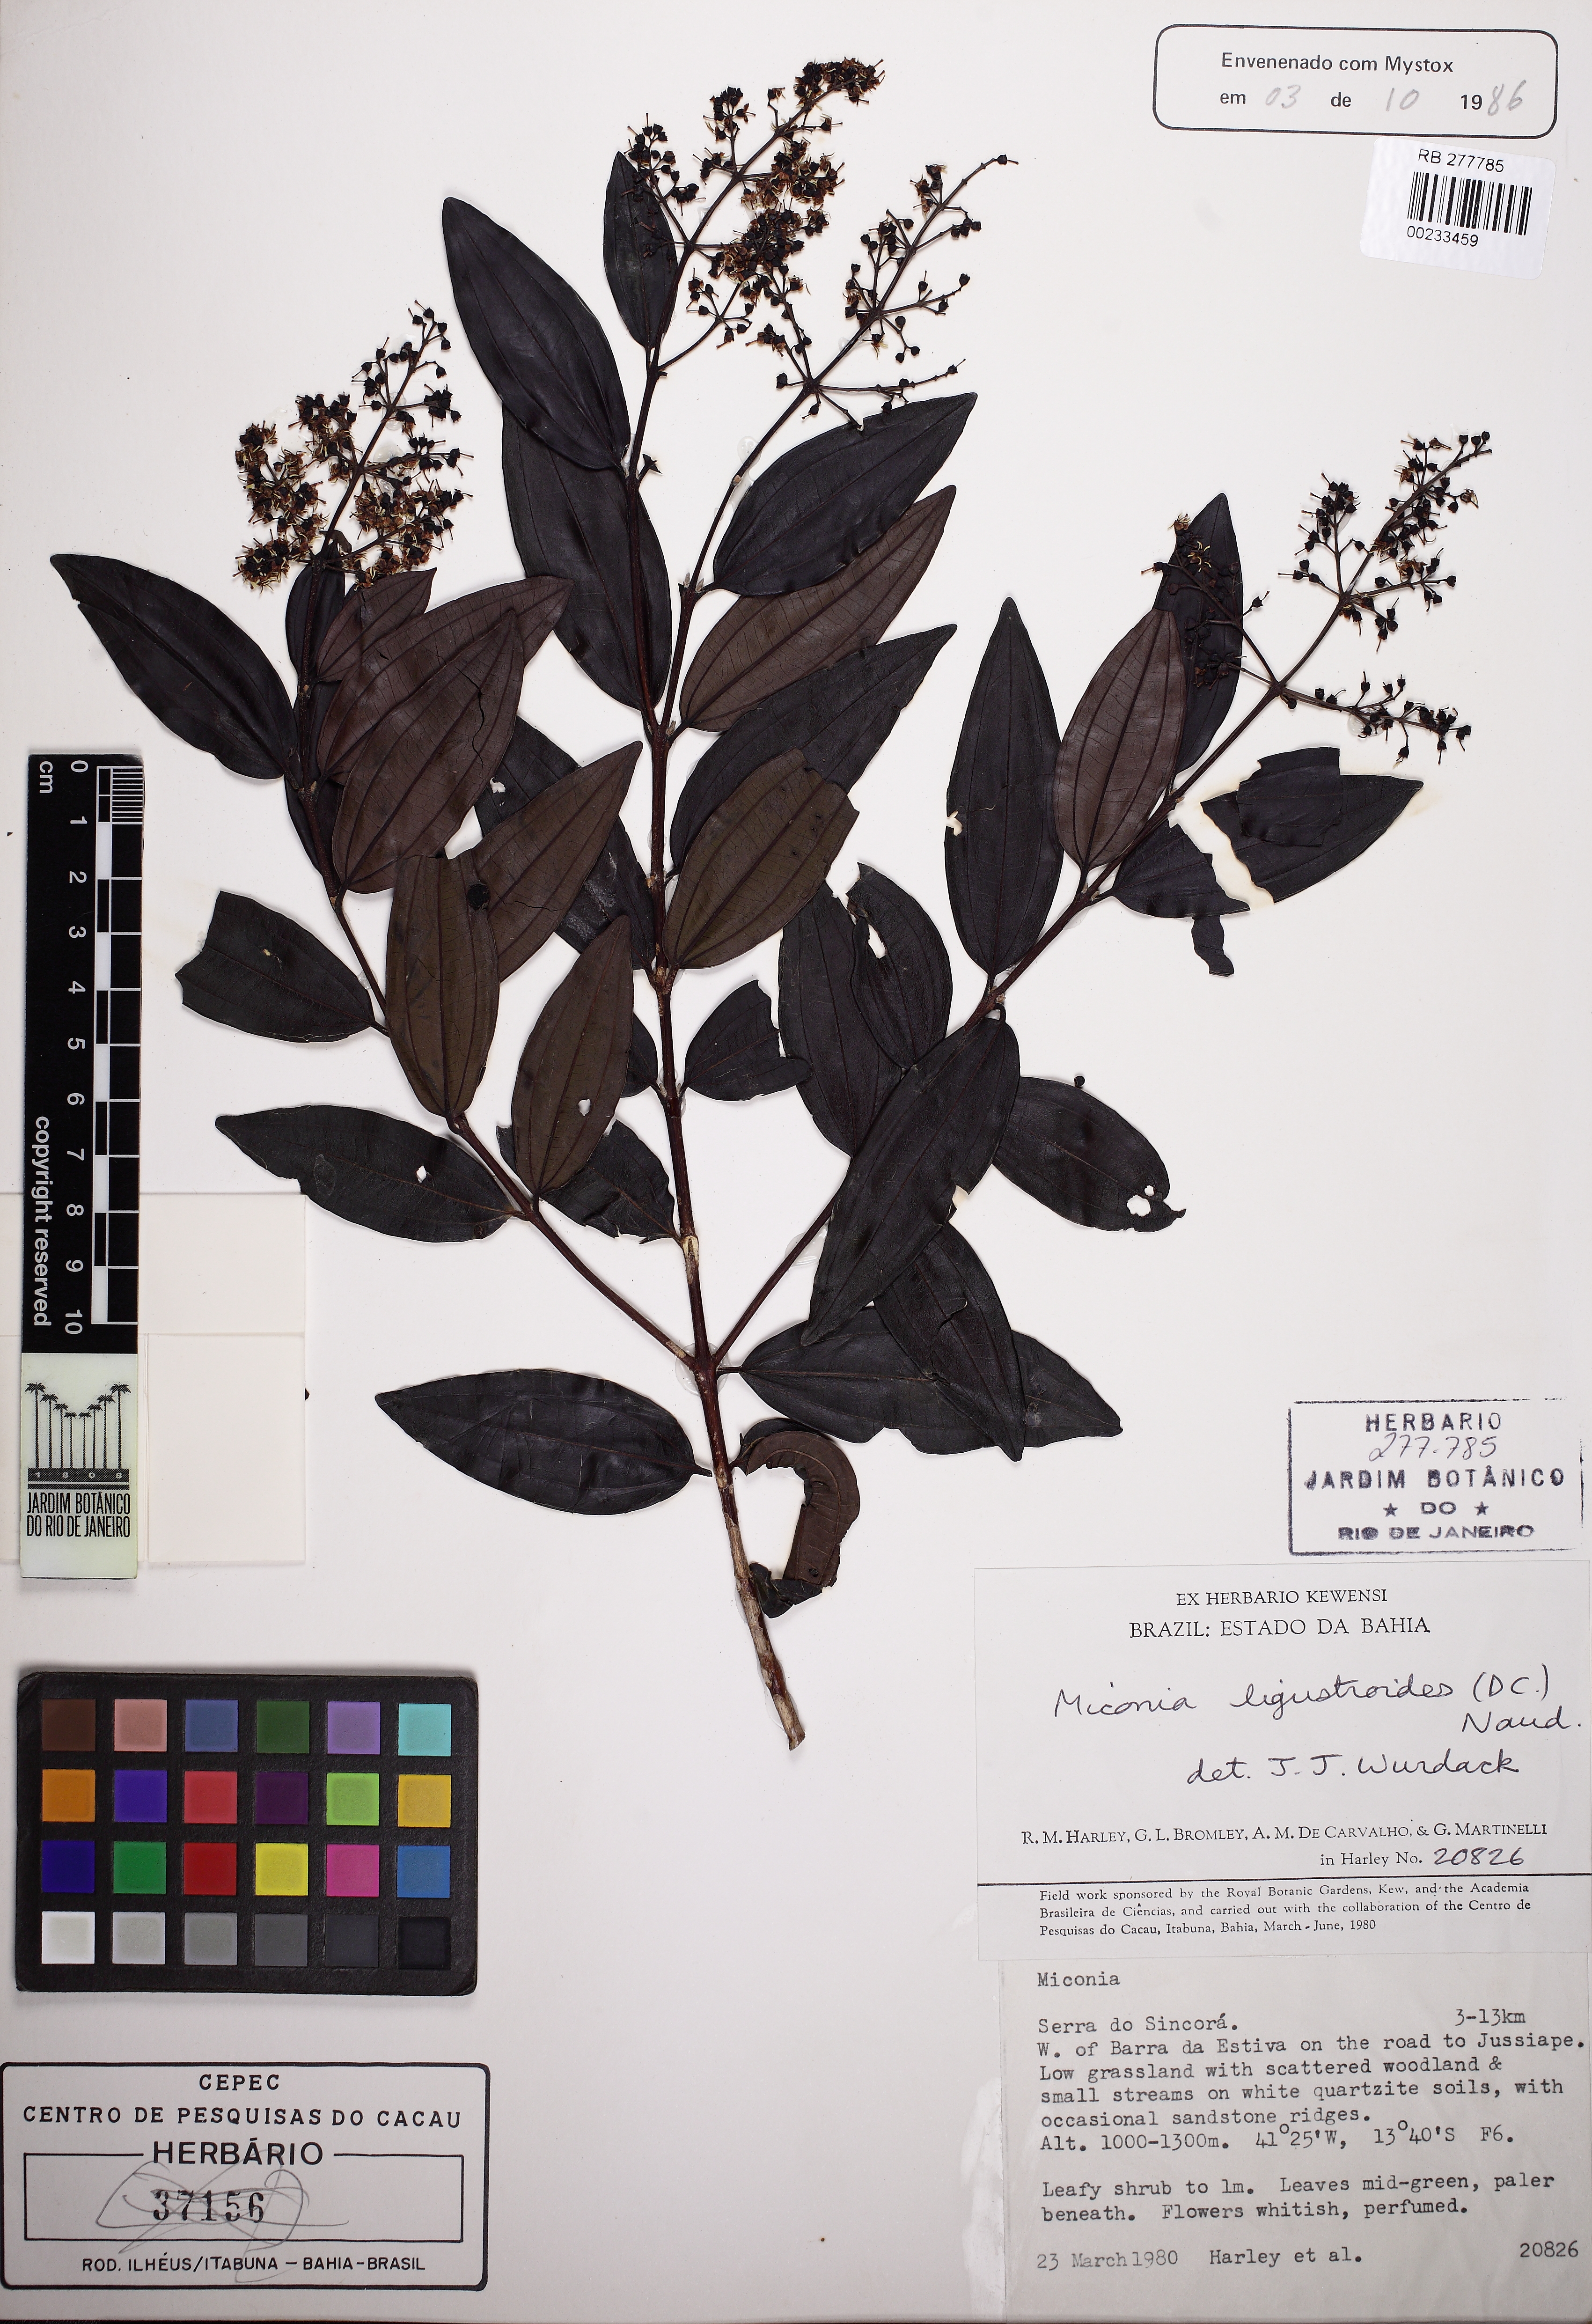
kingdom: Plantae
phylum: Tracheophyta
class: Magnoliopsida
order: Myrtales
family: Melastomataceae
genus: Miconia
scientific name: Miconia ligustroides
